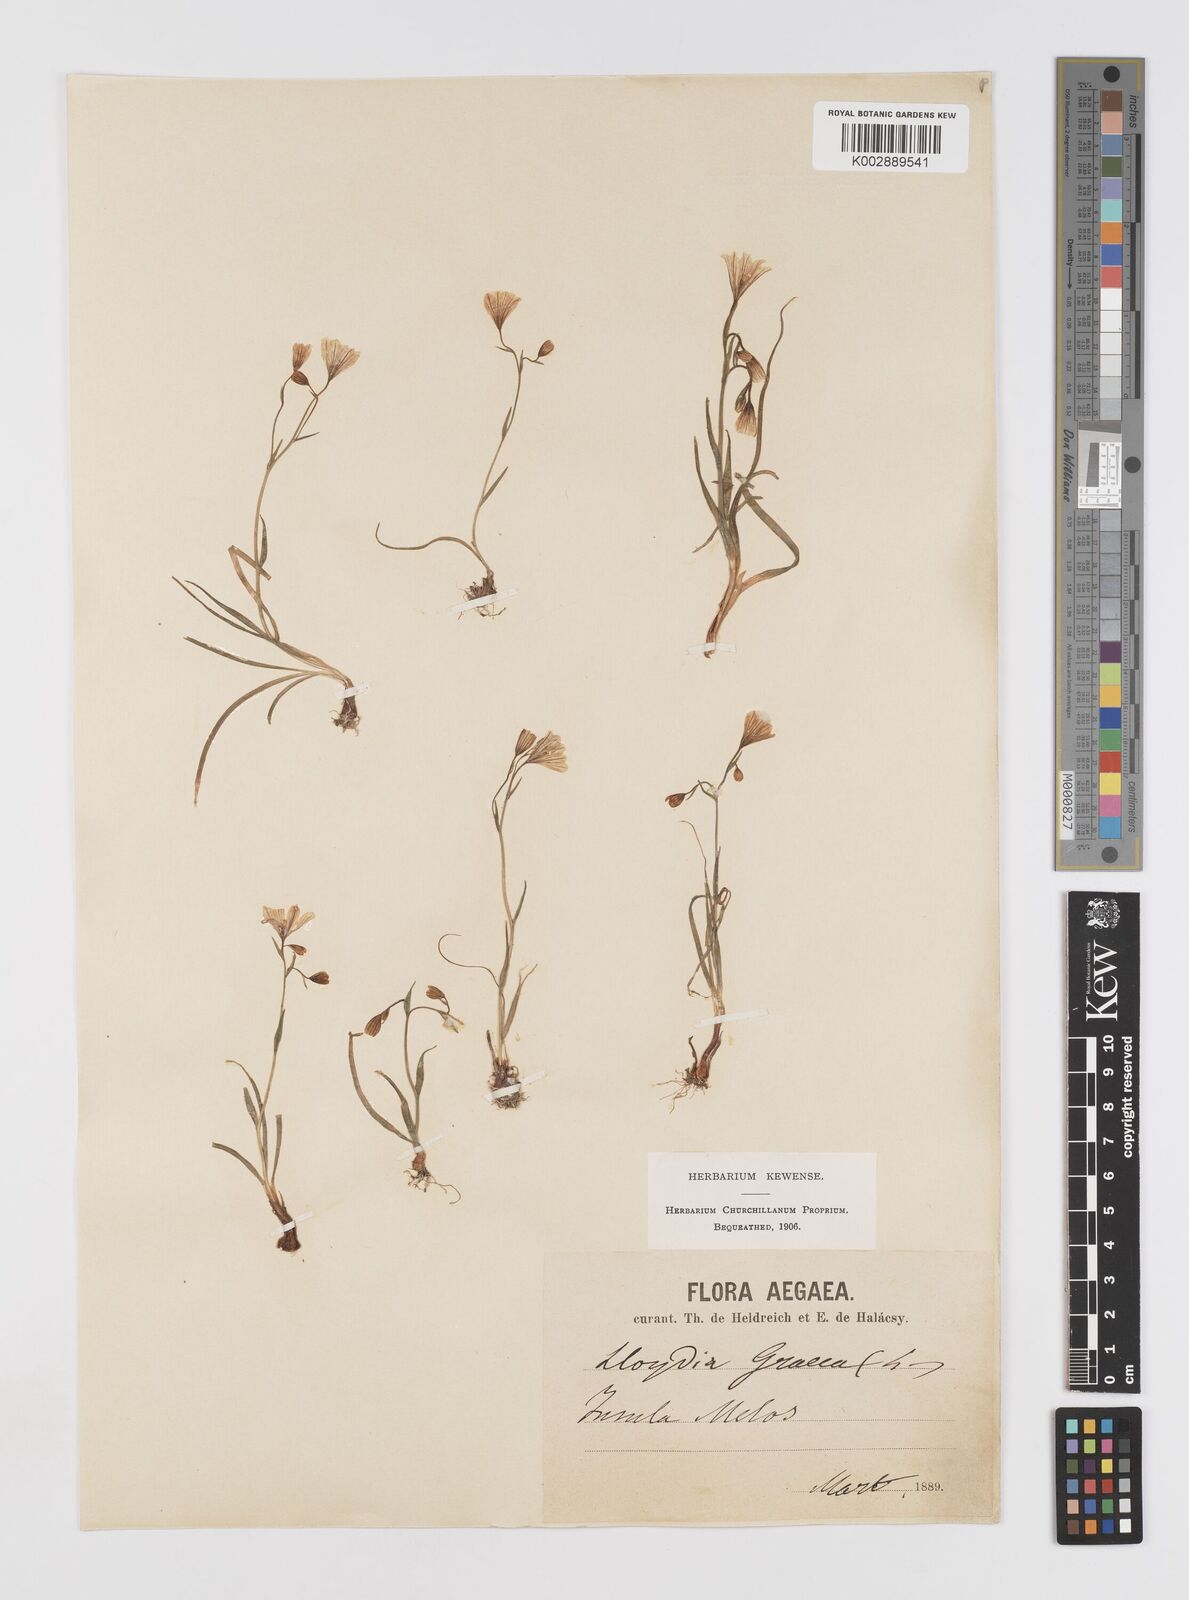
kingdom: Plantae
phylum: Tracheophyta
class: Liliopsida
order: Liliales
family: Liliaceae
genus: Gagea
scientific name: Gagea graeca
